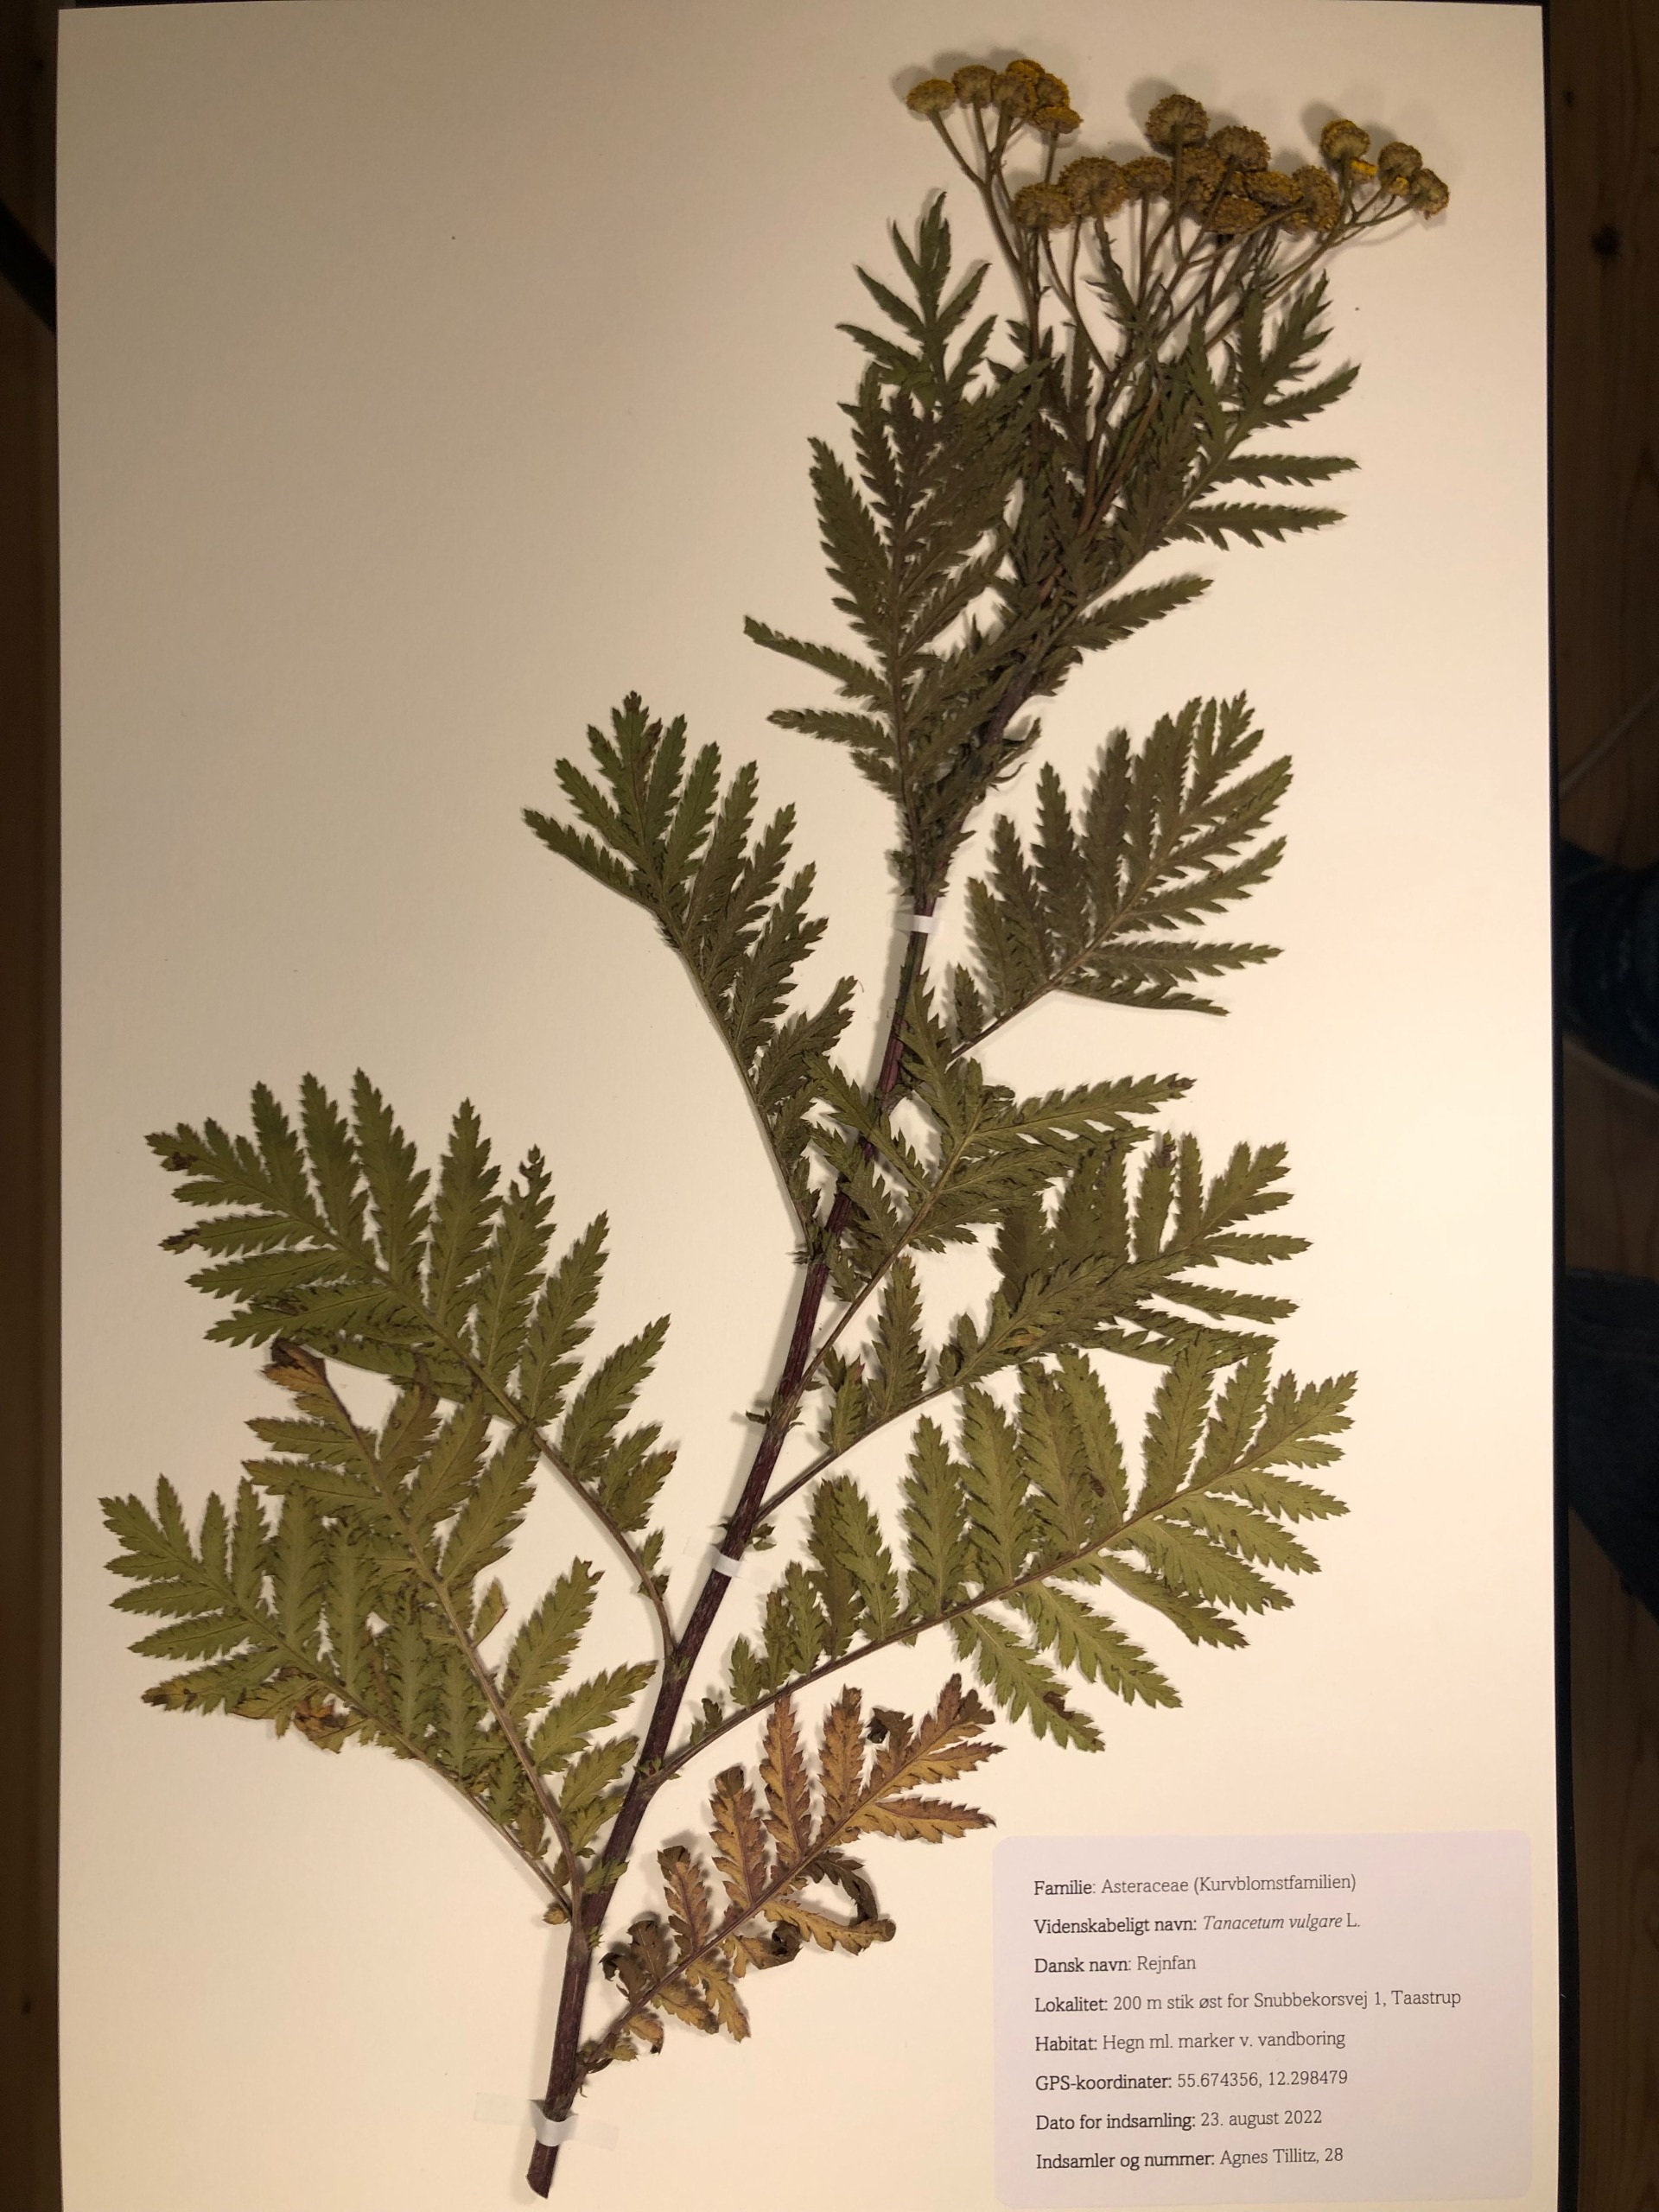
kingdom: Plantae
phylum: Tracheophyta
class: Magnoliopsida
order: Asterales
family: Asteraceae
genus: Tanacetum
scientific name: Tanacetum vulgare
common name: Rejnfan
